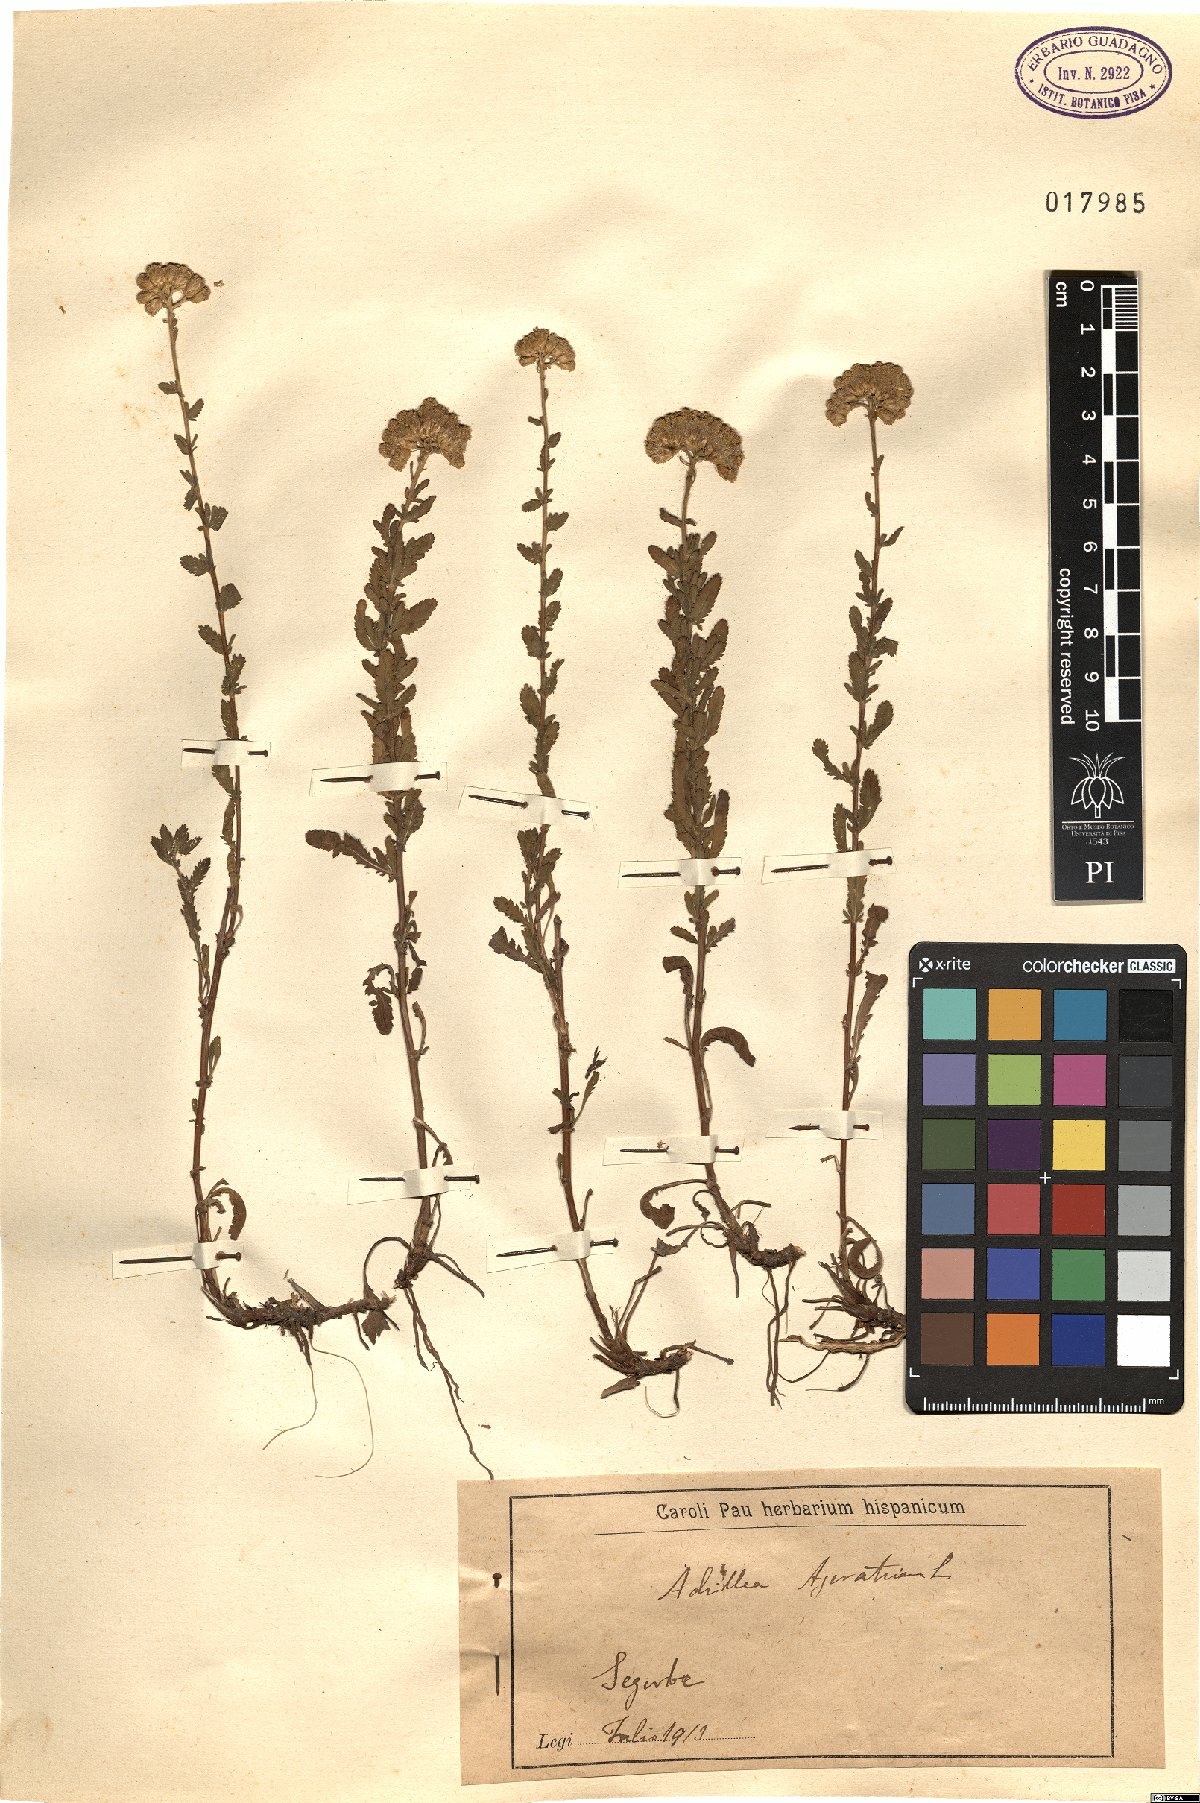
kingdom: Plantae
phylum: Tracheophyta
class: Magnoliopsida
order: Asterales
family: Asteraceae
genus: Achillea
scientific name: Achillea ageratum
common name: Sweet-nancy
